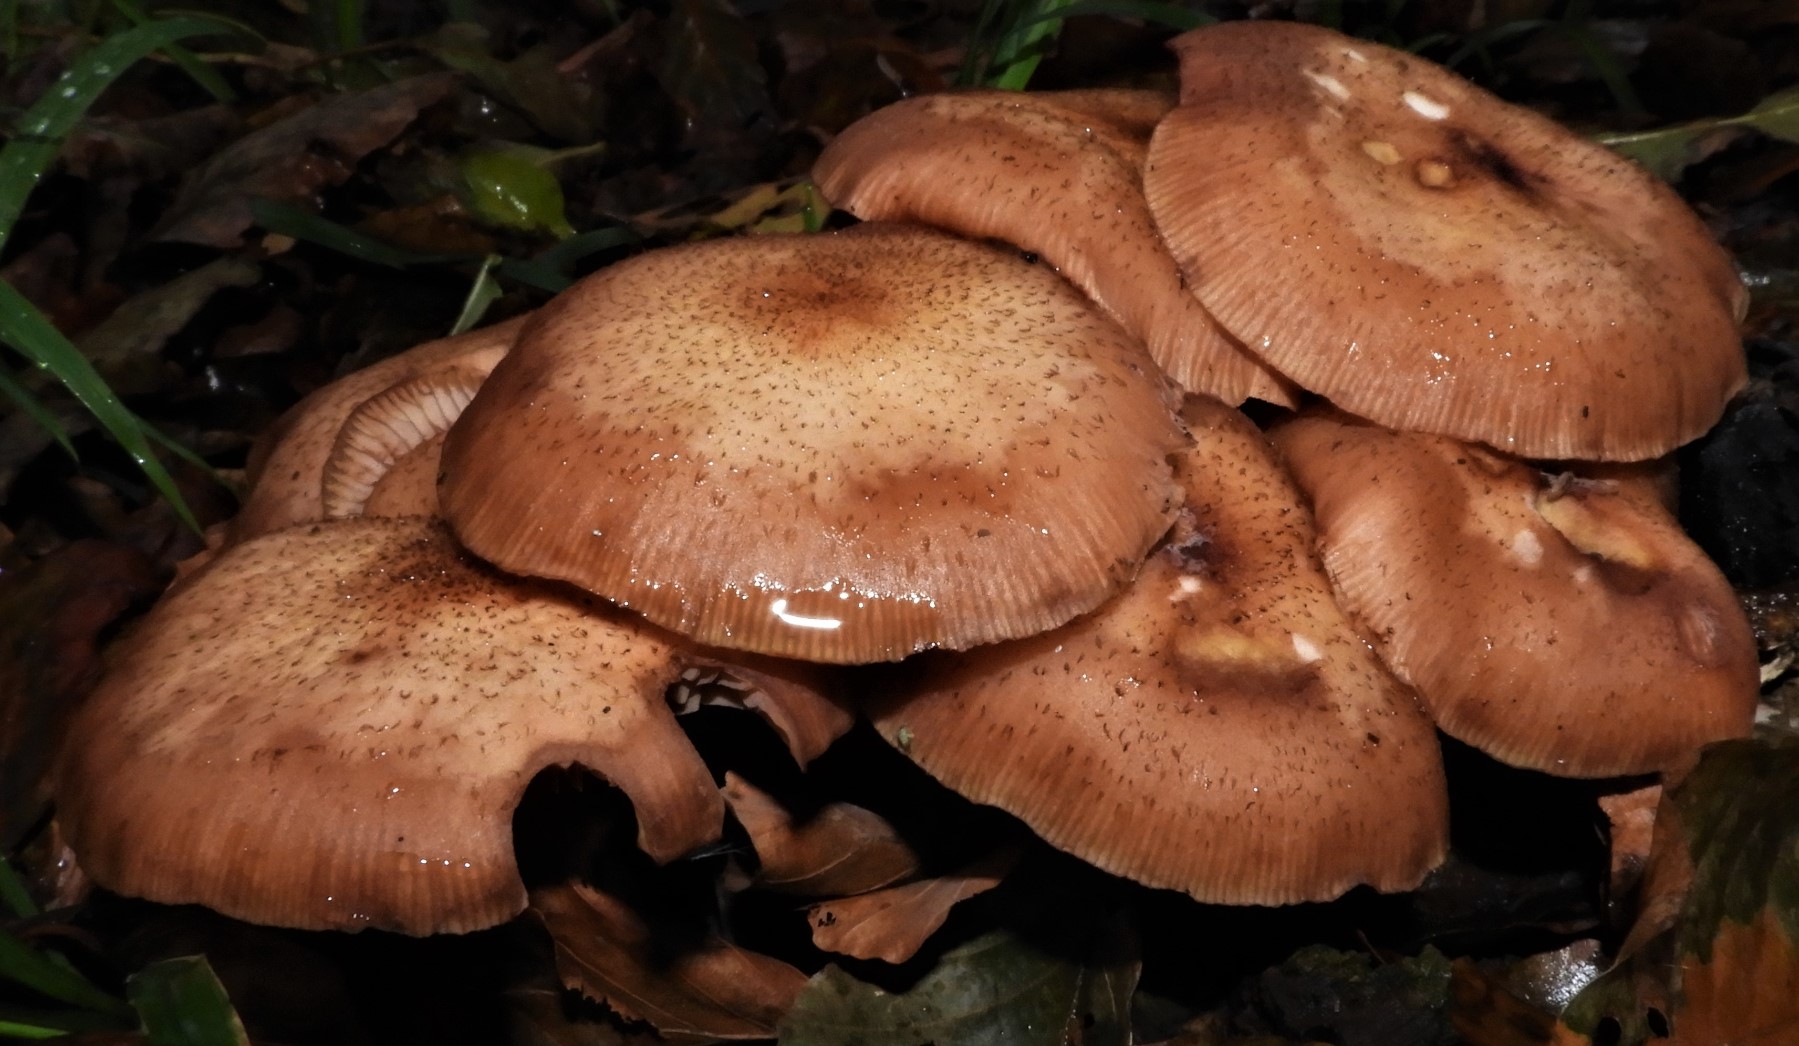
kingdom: Fungi
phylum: Basidiomycota
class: Agaricomycetes
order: Agaricales
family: Physalacriaceae
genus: Armillaria
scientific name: Armillaria lutea
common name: køllestokket honningsvamp
